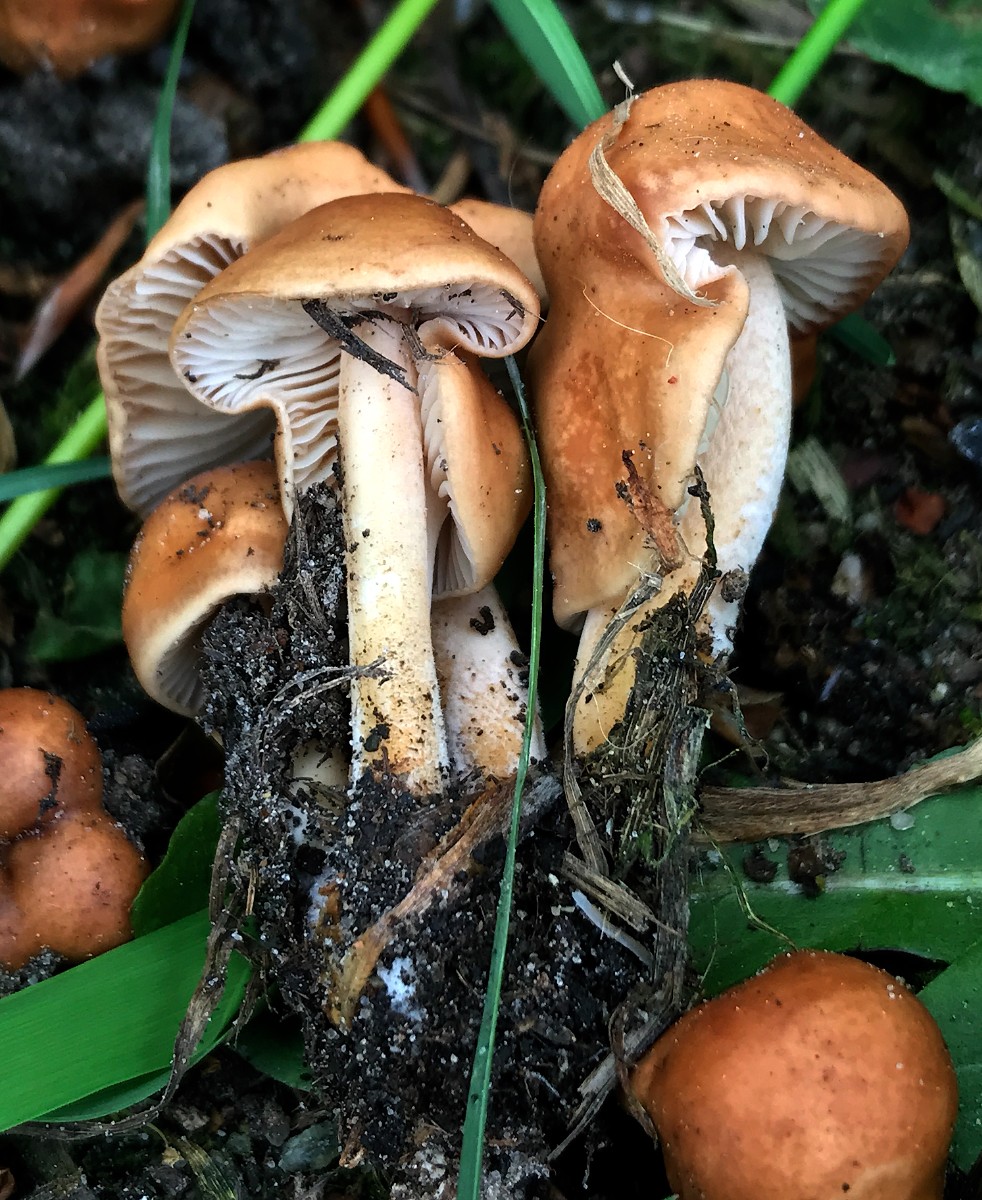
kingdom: Fungi
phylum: Basidiomycota
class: Agaricomycetes
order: Agaricales
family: Marasmiaceae
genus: Marasmius
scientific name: Marasmius oreades
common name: elledans-bruskhat
